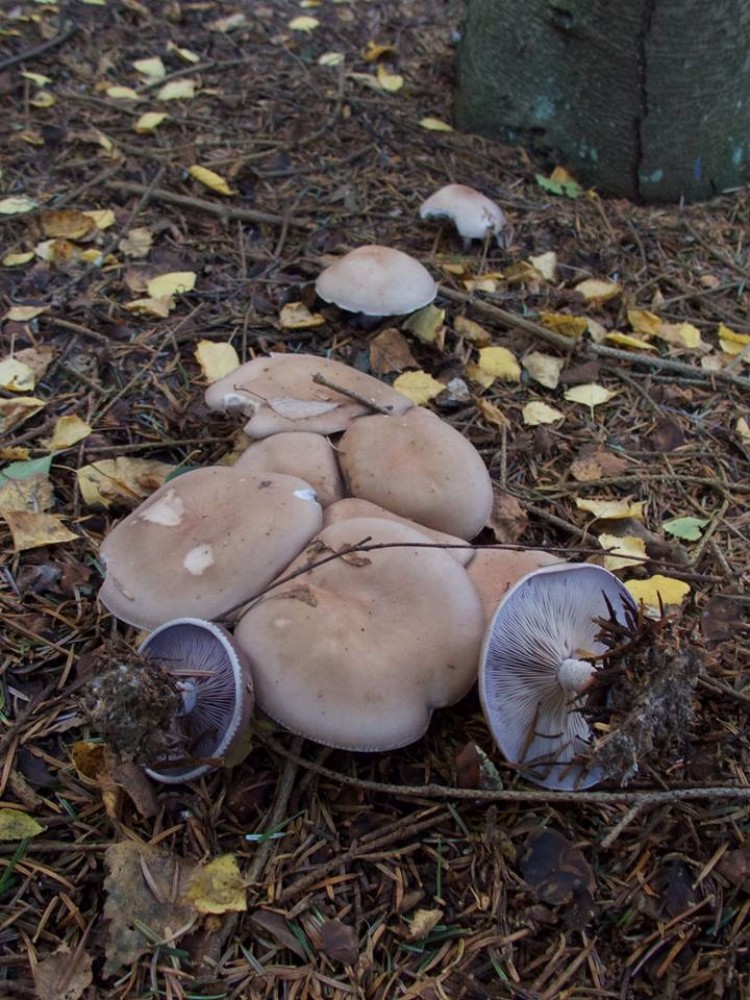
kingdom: Fungi
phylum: Basidiomycota
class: Agaricomycetes
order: Agaricales
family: Tricholomataceae
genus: Lepista
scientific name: Lepista nuda
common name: violet hekseringshat
